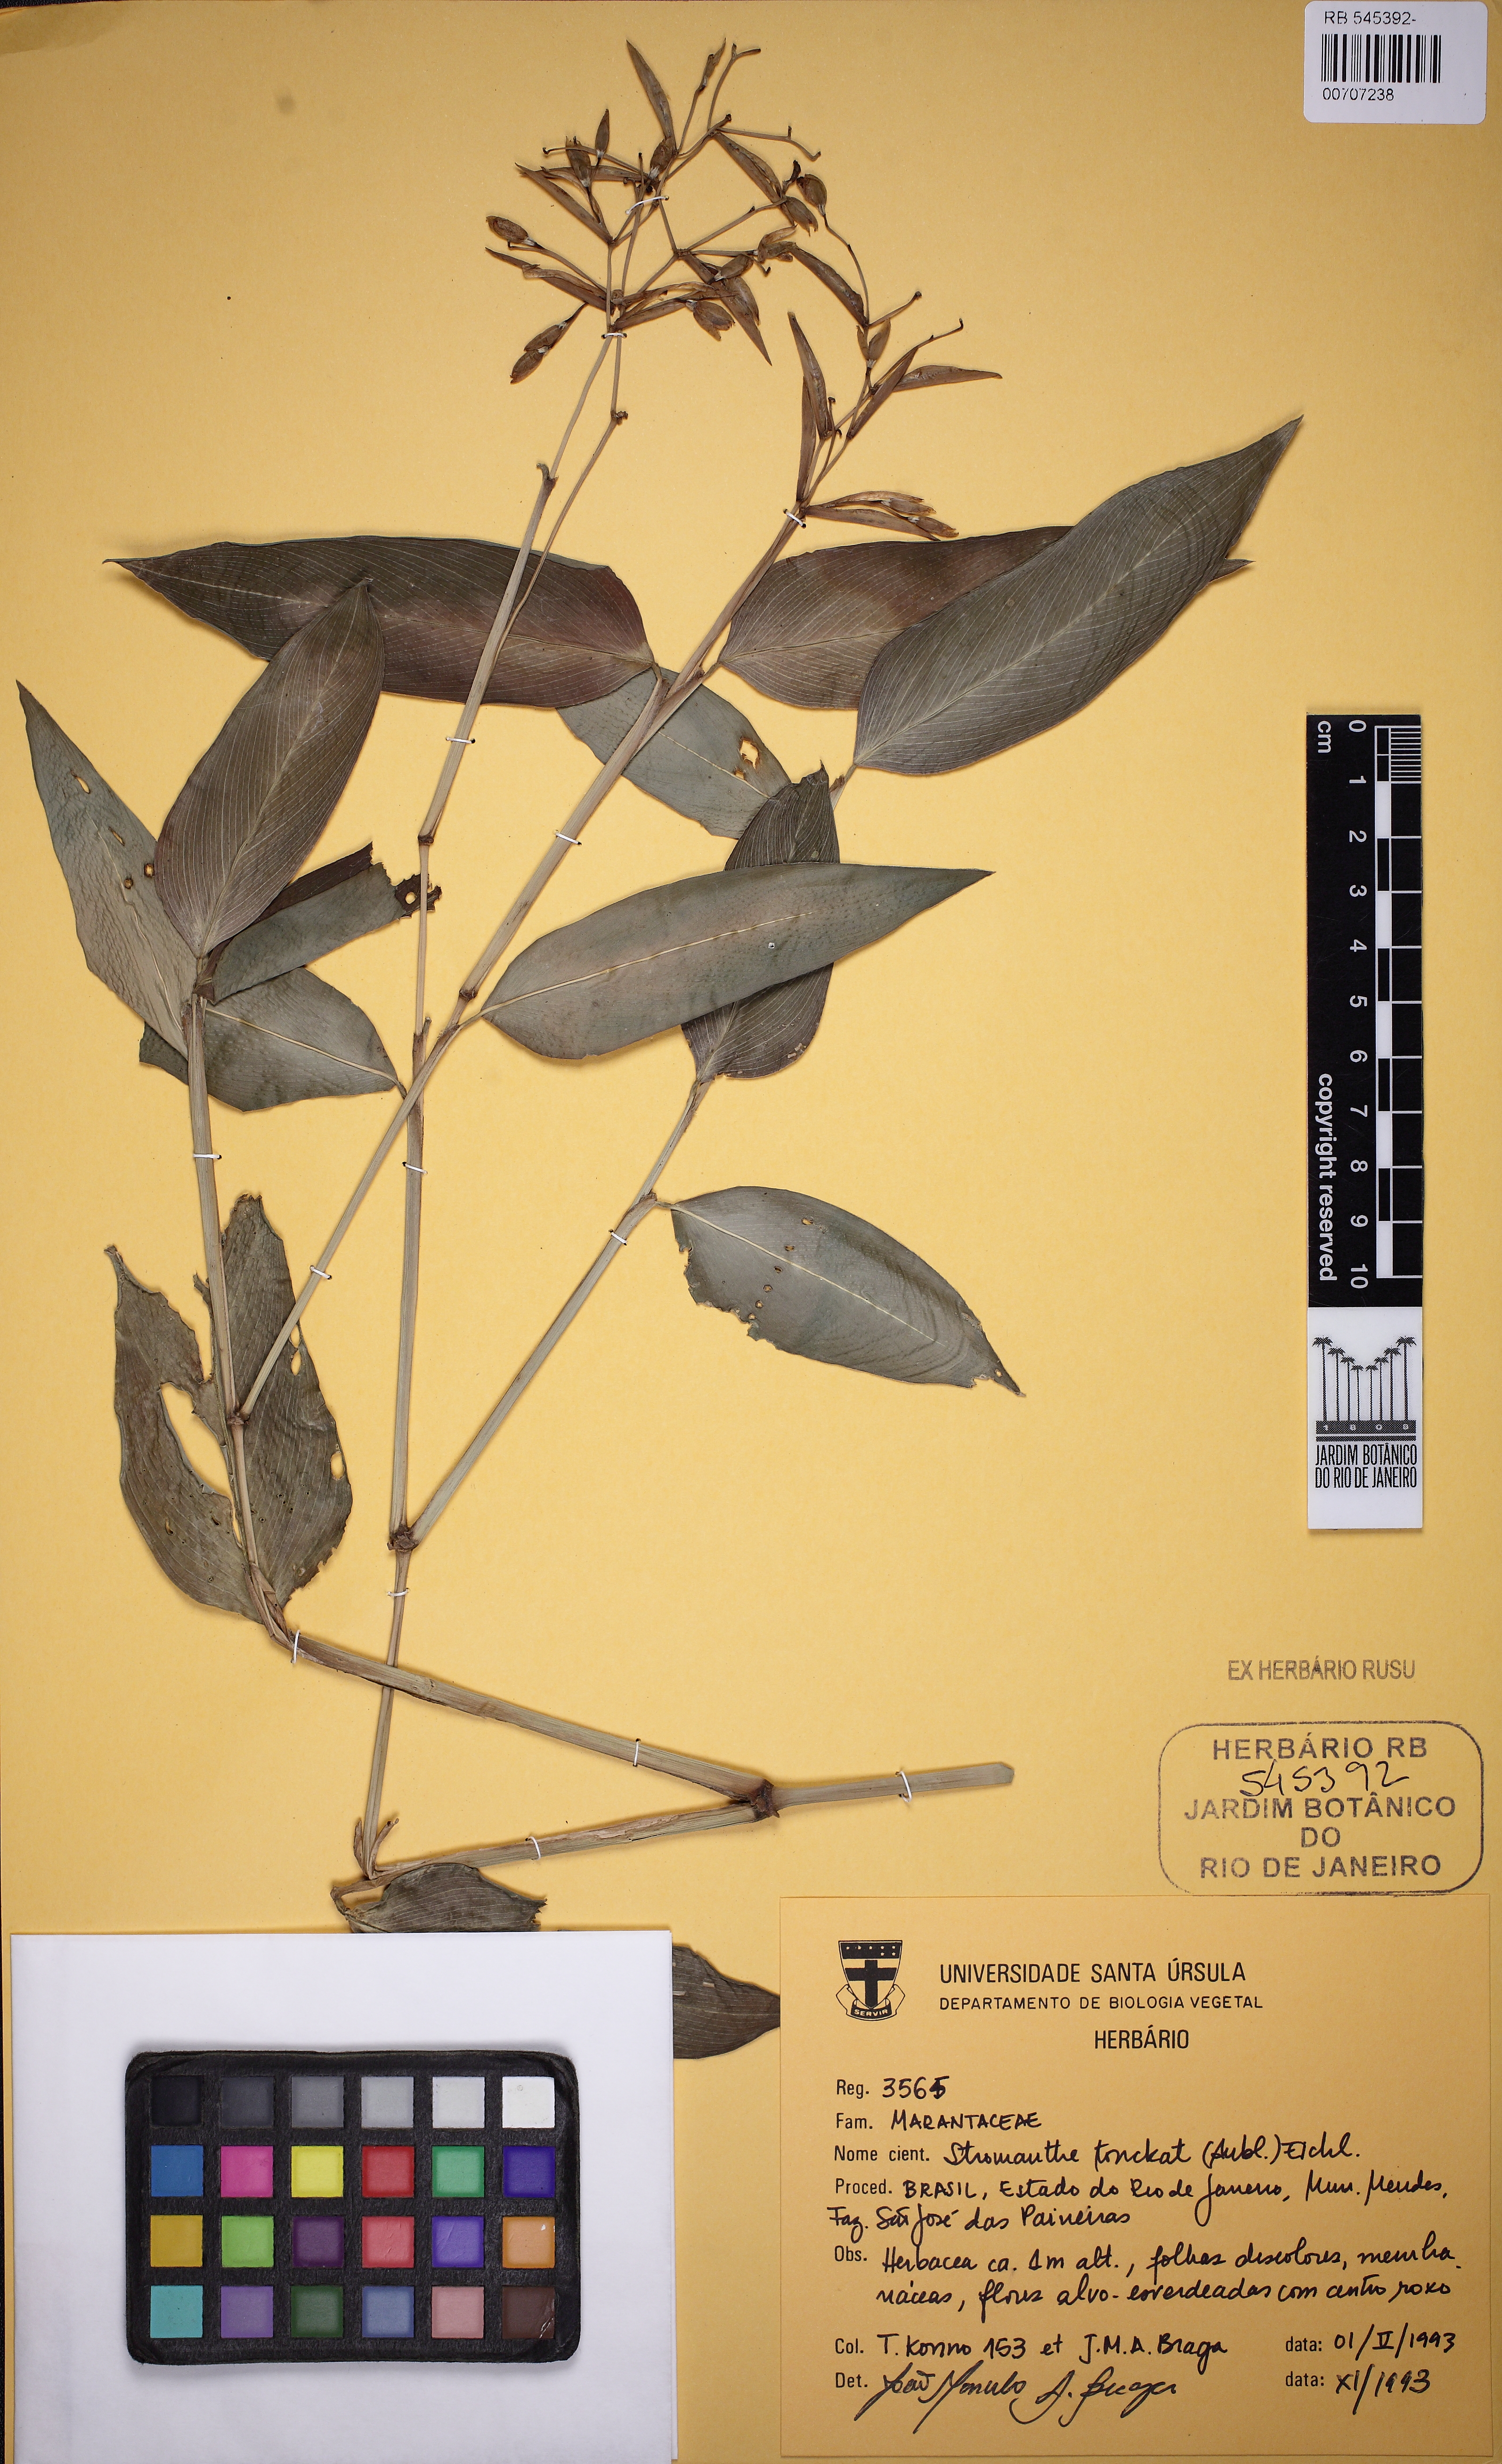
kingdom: Plantae
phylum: Tracheophyta
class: Liliopsida
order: Zingiberales
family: Marantaceae
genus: Stromanthe
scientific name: Stromanthe tonckat
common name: Stromanthe
